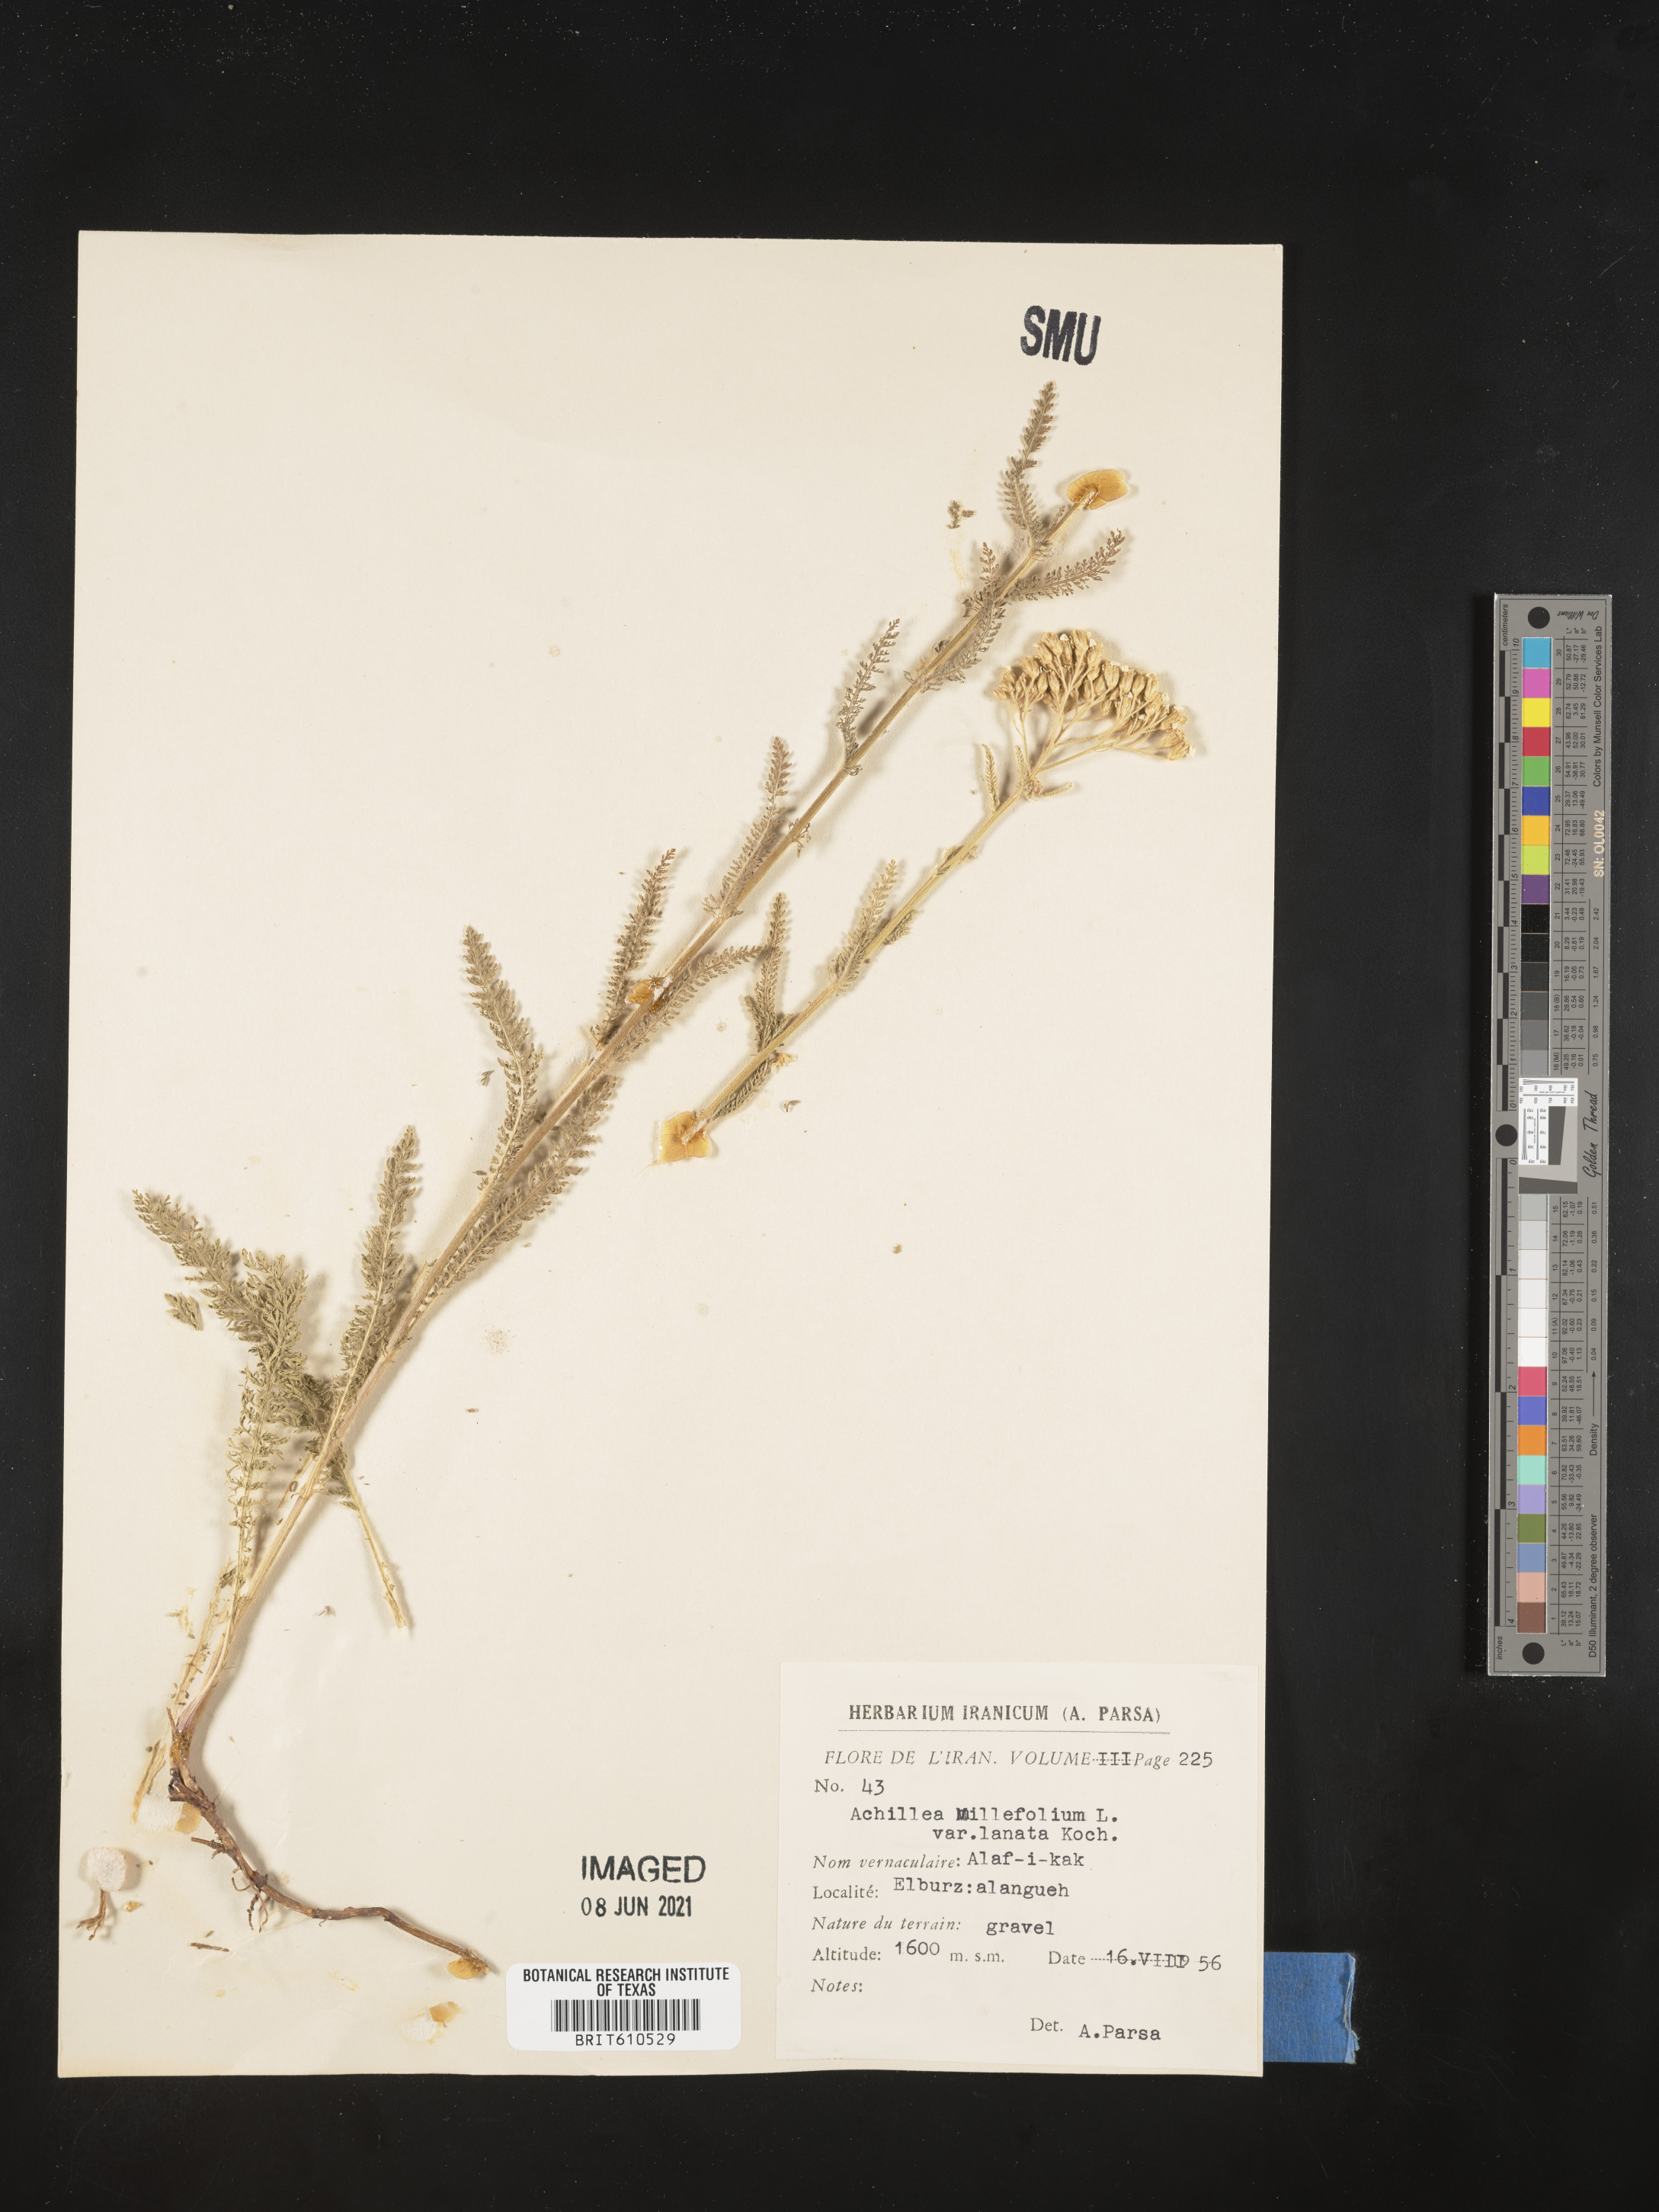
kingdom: Plantae
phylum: Tracheophyta
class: Magnoliopsida
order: Asterales
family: Asteraceae
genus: Achillea
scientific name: Achillea millefolium
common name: Yarrow
